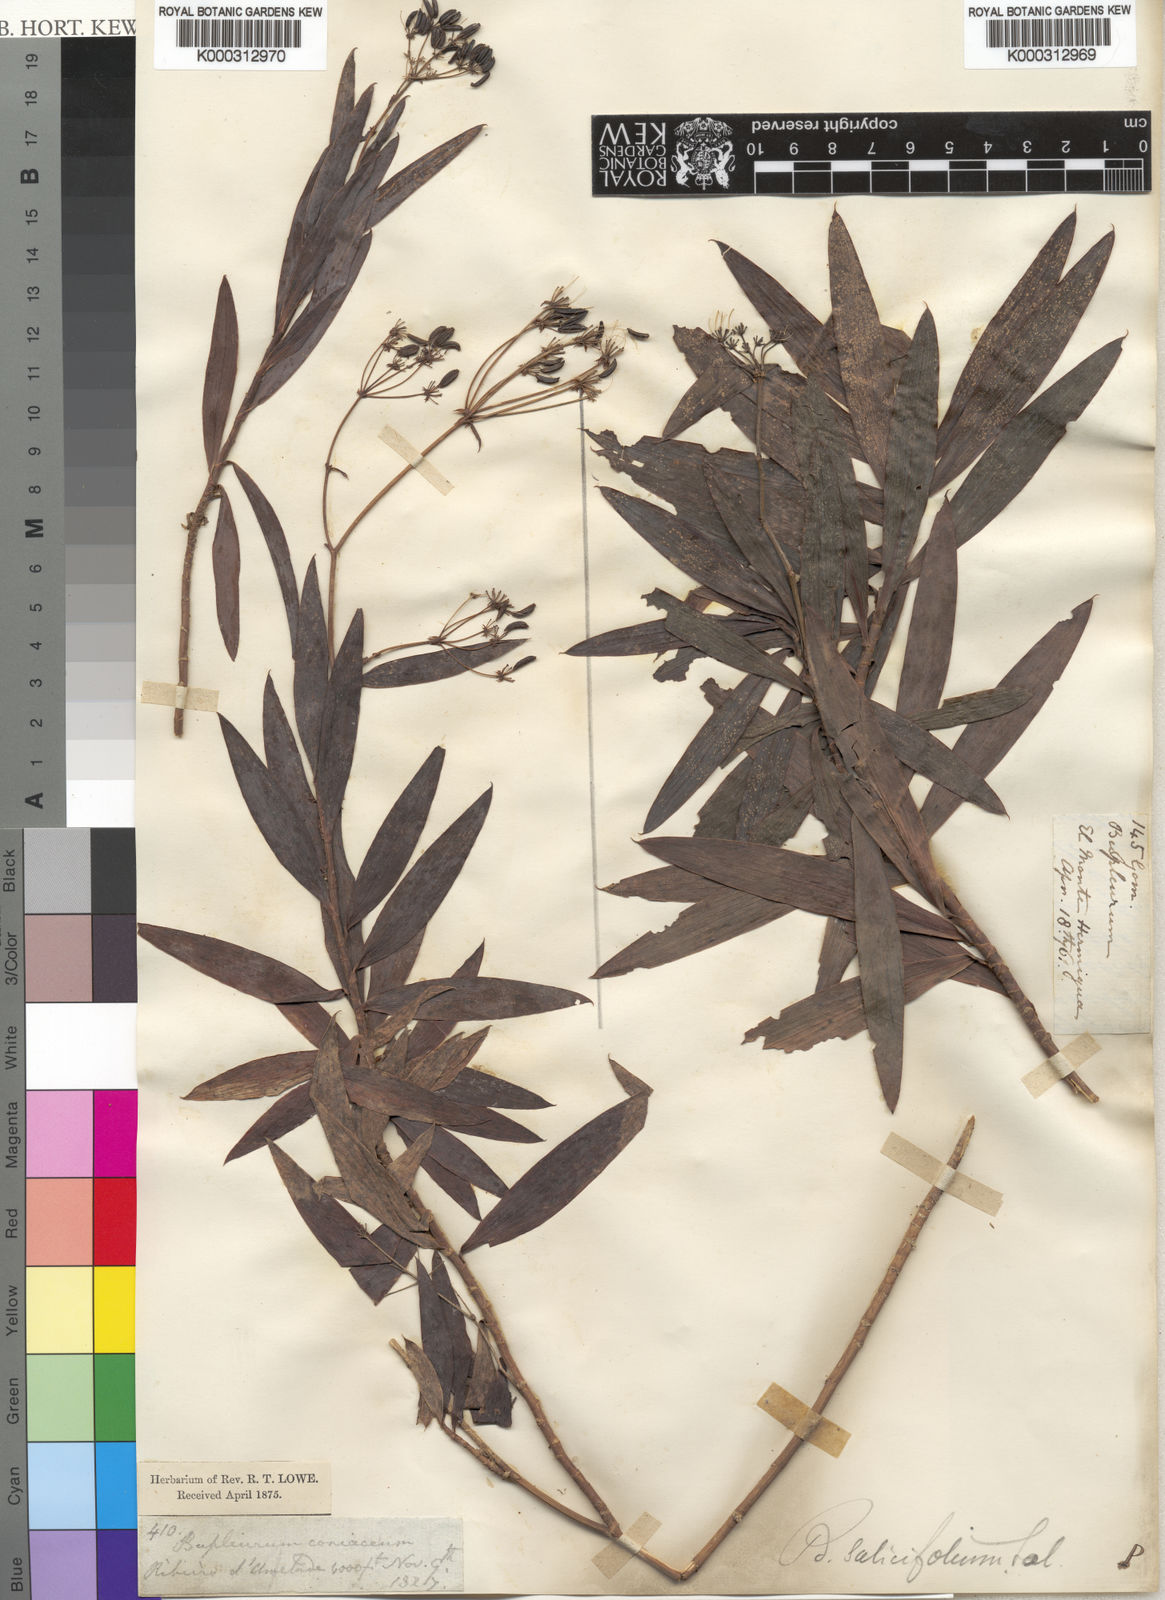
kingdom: Plantae
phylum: Tracheophyta
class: Magnoliopsida
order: Apiales
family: Apiaceae
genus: Bupleurum
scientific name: Bupleurum
